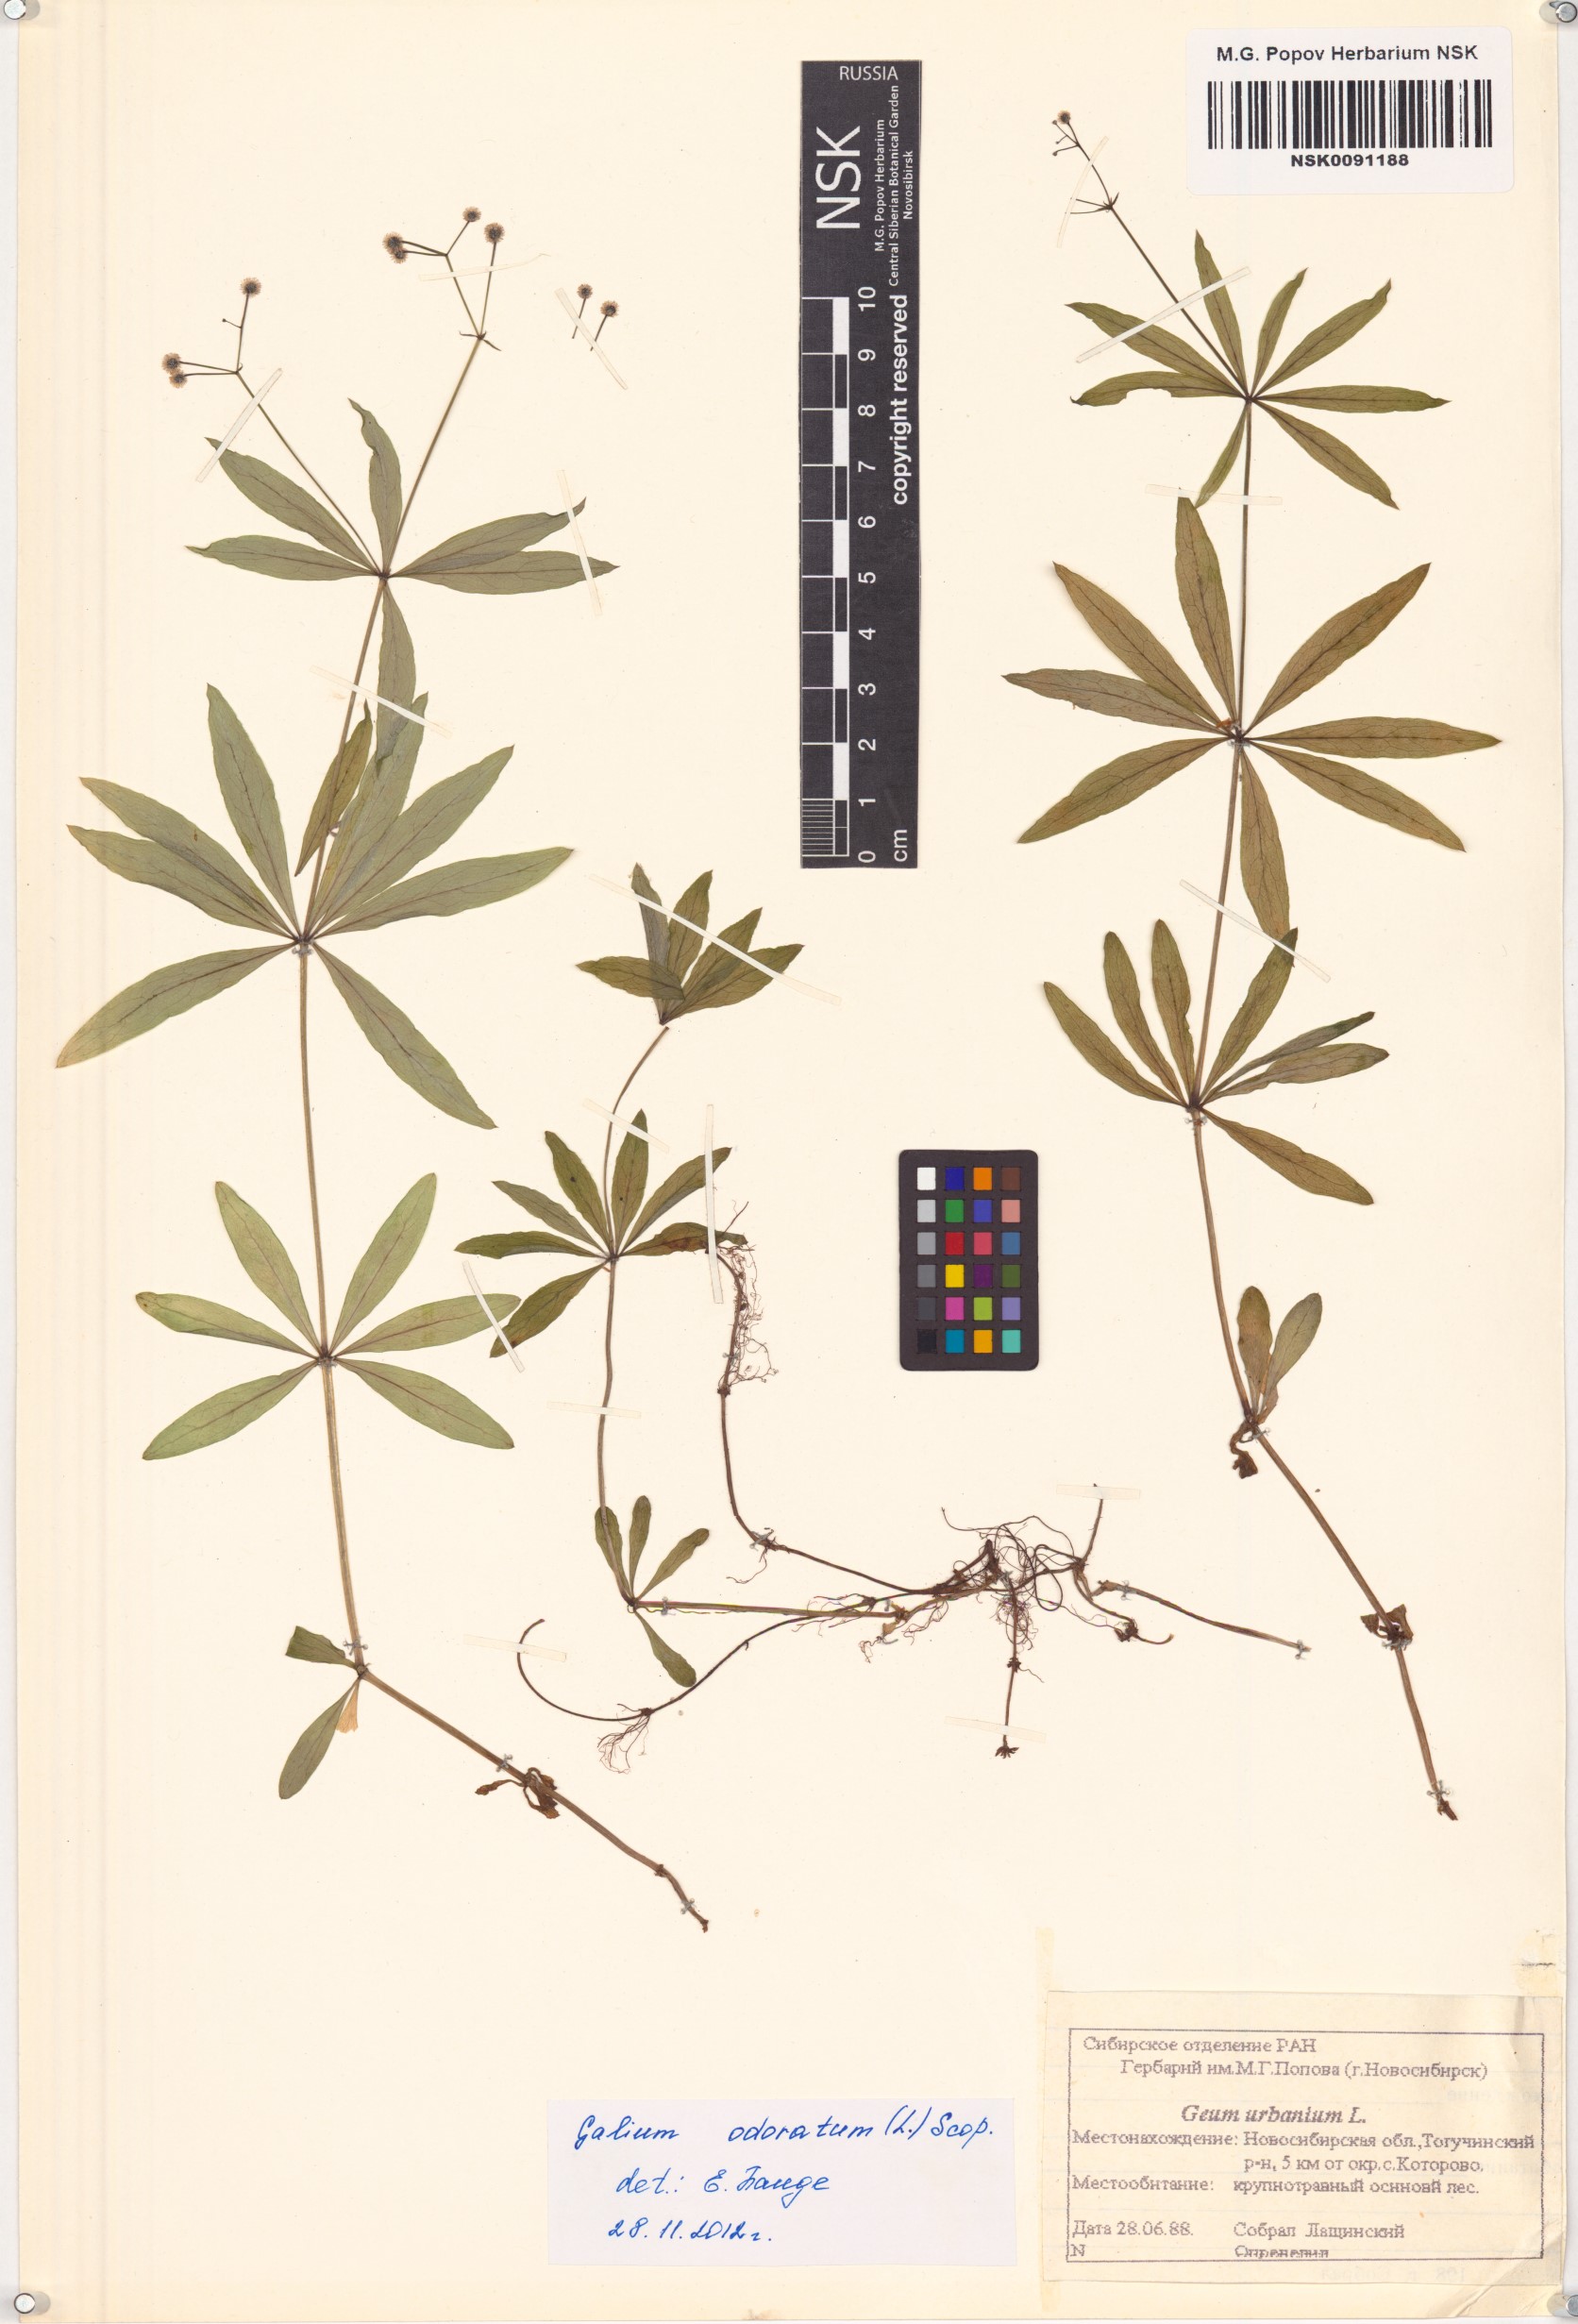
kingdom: Plantae
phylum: Tracheophyta
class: Magnoliopsida
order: Gentianales
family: Rubiaceae
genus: Galium
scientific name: Galium odoratum
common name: Sweet woodruff
